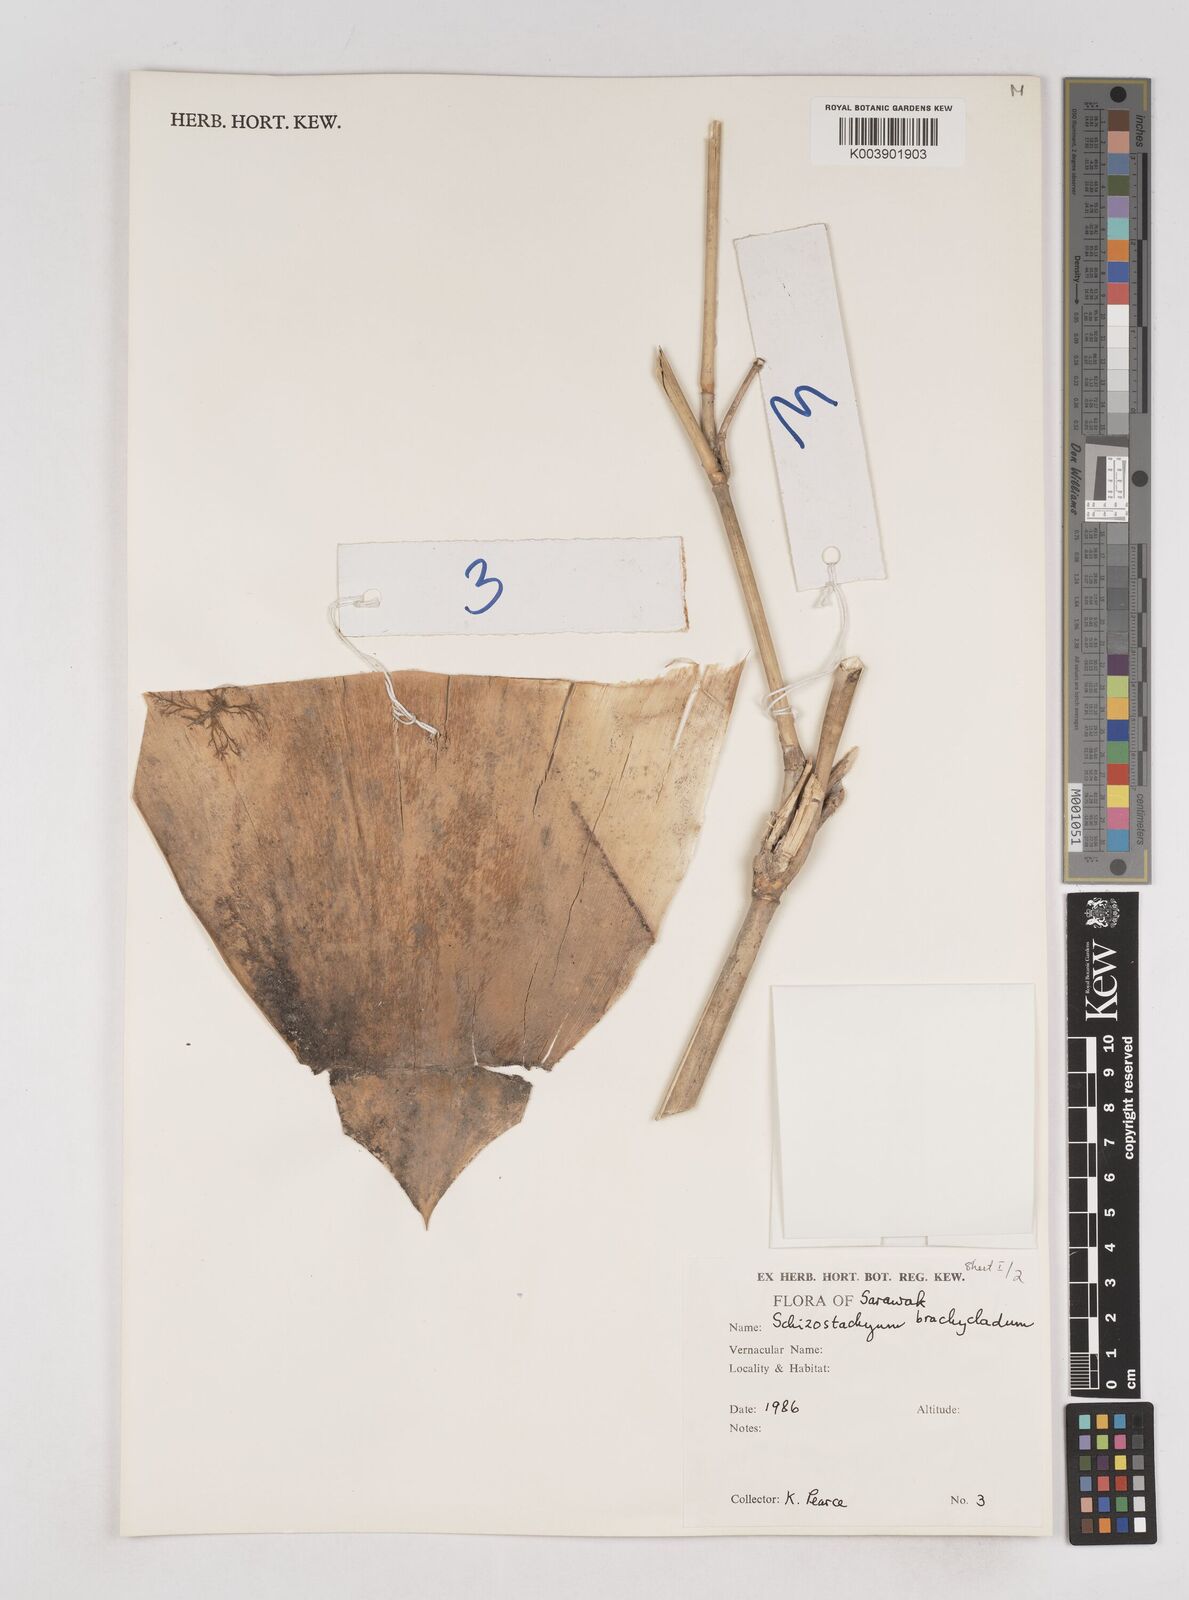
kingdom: Plantae
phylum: Tracheophyta
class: Liliopsida
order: Poales
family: Poaceae
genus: Schizostachyum
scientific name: Schizostachyum
